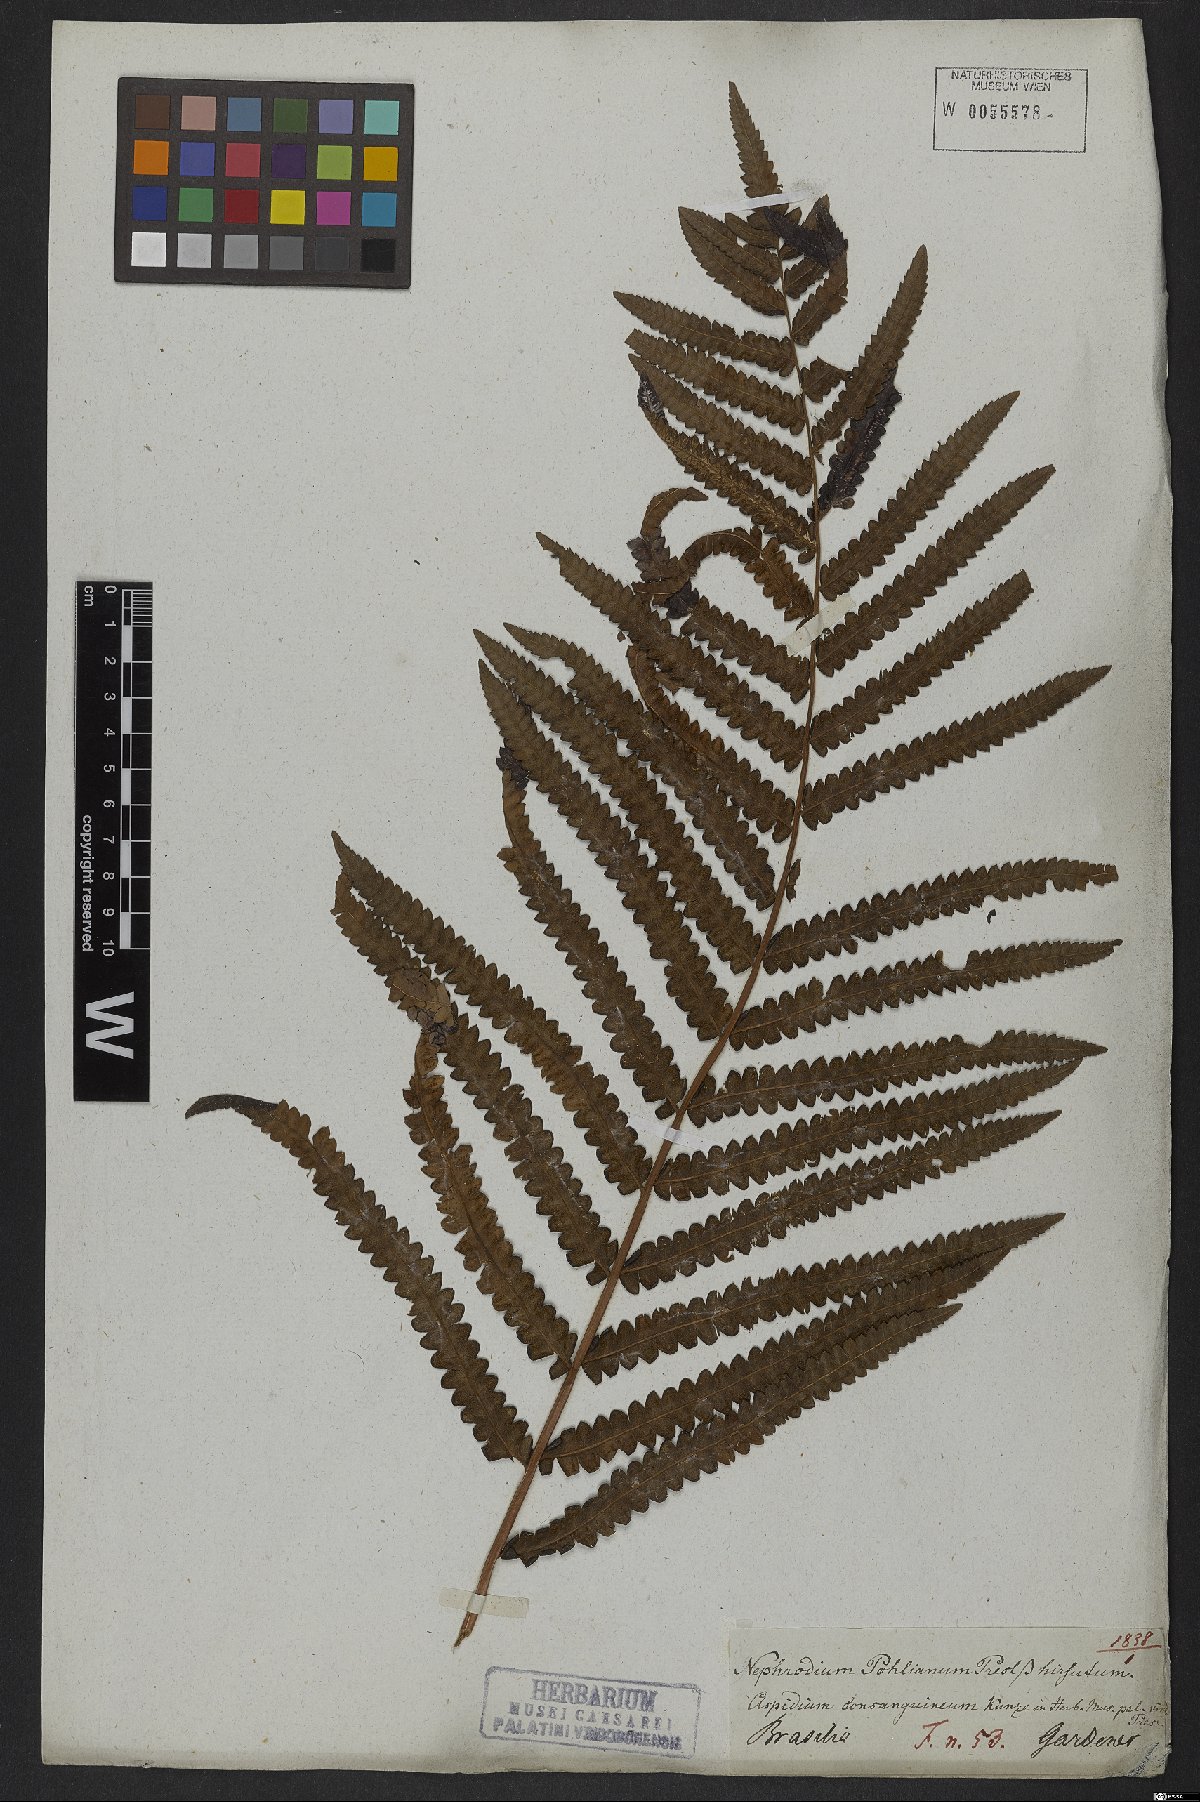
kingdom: Plantae
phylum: Tracheophyta
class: Polypodiopsida
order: Polypodiales
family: Thelypteridaceae
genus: Cyclosorus
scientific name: Cyclosorus interruptus
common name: Neke fern
